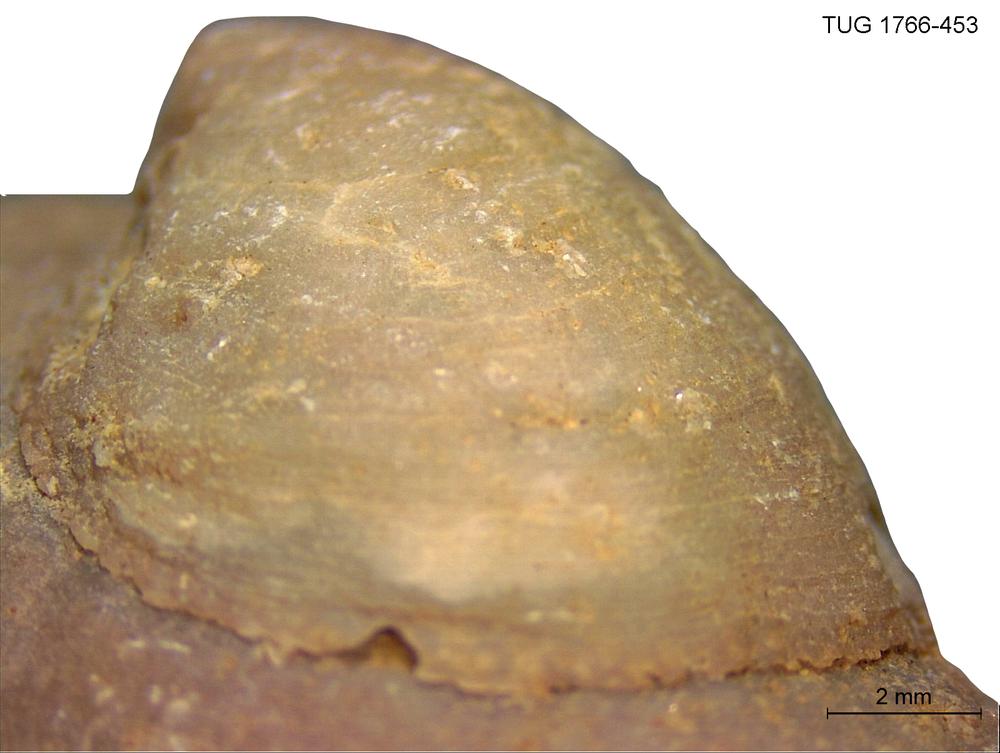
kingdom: Animalia
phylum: Brachiopoda
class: Craniata
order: Craniida
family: Craniidae
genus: Philhedra
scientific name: Philhedra
